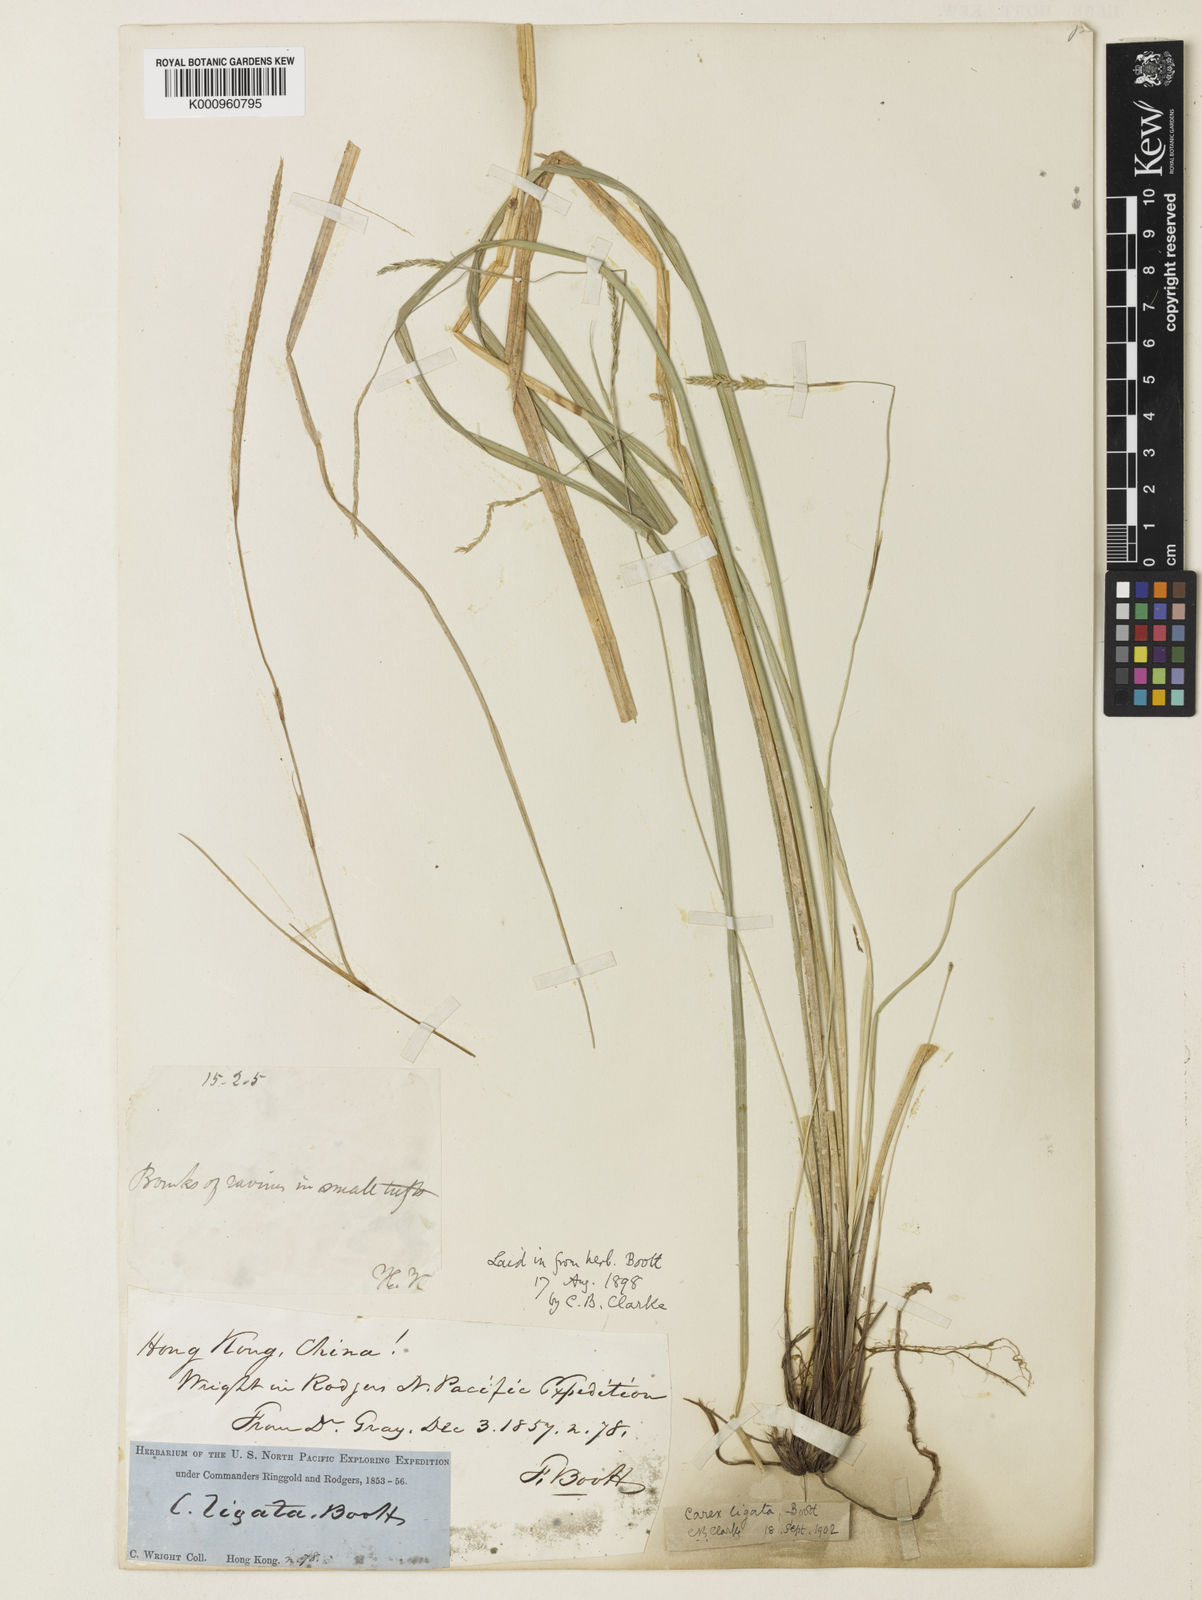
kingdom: Plantae
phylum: Tracheophyta
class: Liliopsida
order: Poales
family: Cyperaceae
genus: Carex
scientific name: Carex ligata
